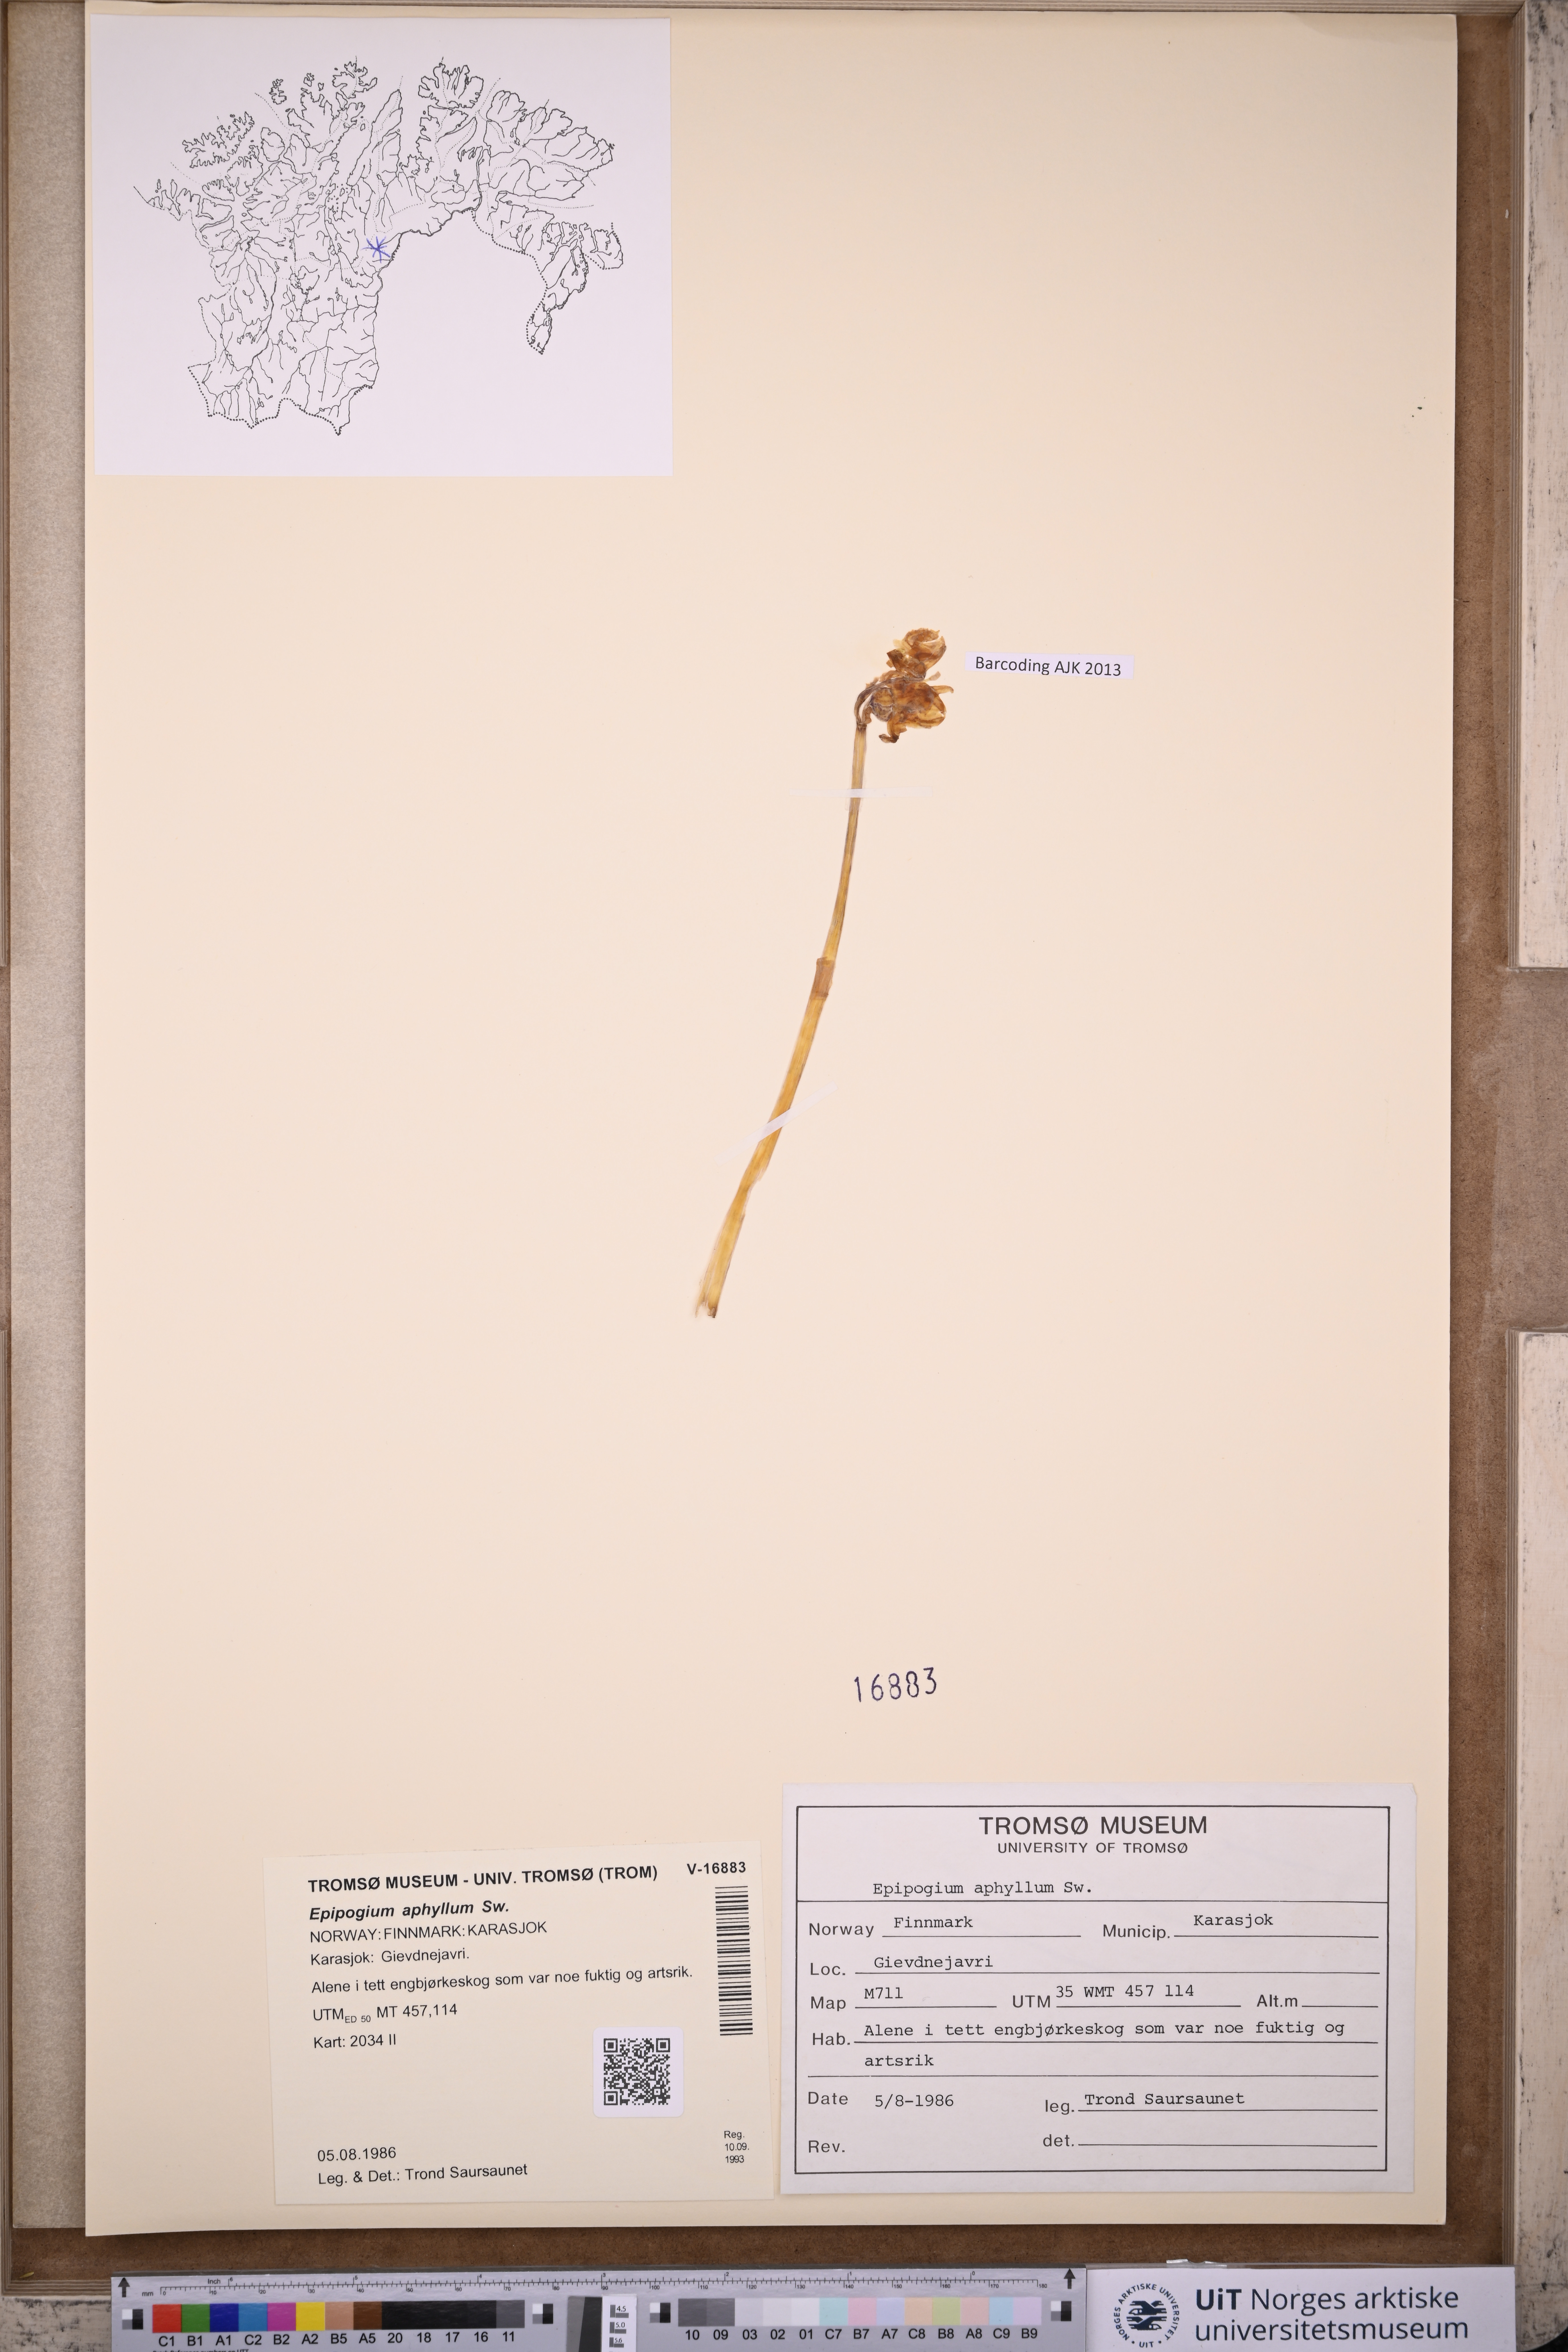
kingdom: Plantae
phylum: Tracheophyta
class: Liliopsida
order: Asparagales
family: Orchidaceae
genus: Epipogium
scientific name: Epipogium aphyllum
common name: Ghost orchid
